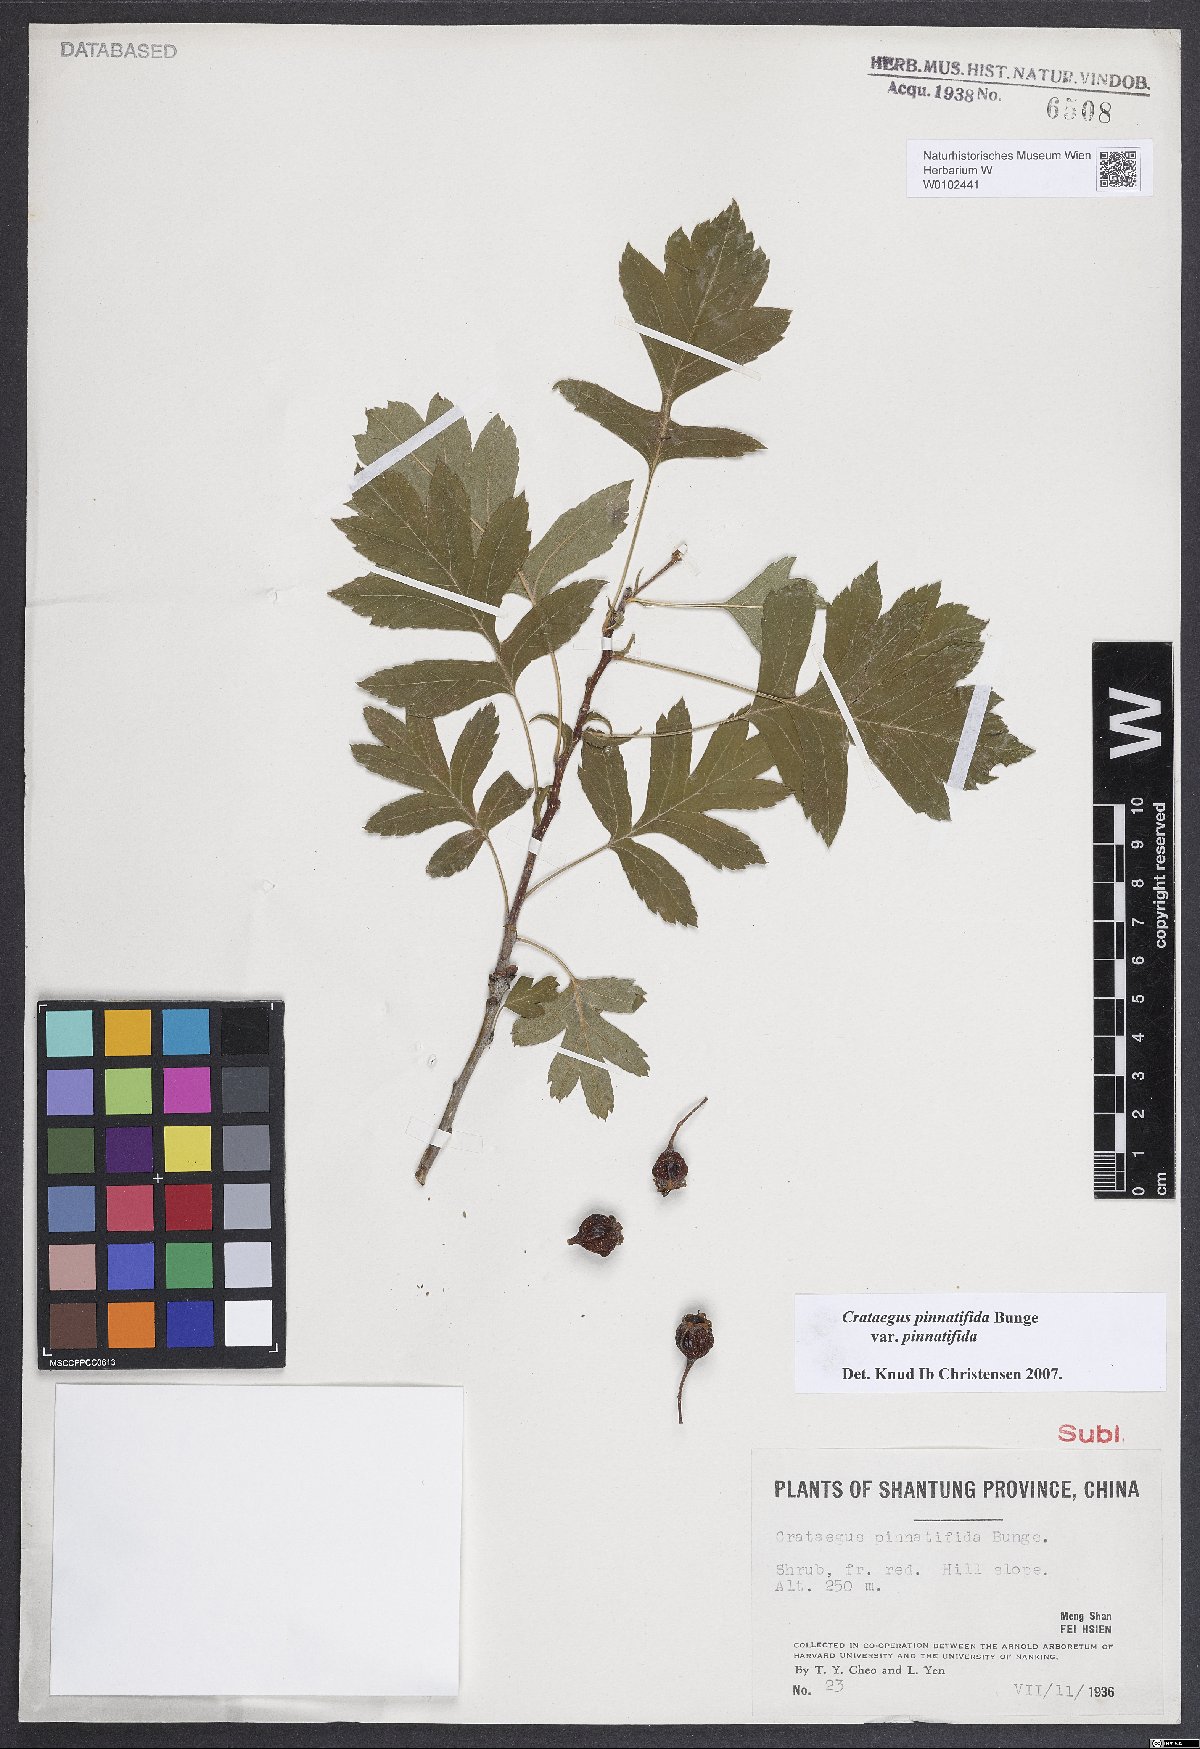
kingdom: Plantae
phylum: Tracheophyta
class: Magnoliopsida
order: Rosales
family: Rosaceae
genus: Crataegus
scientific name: Crataegus pinnatifida
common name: Chinese haw
